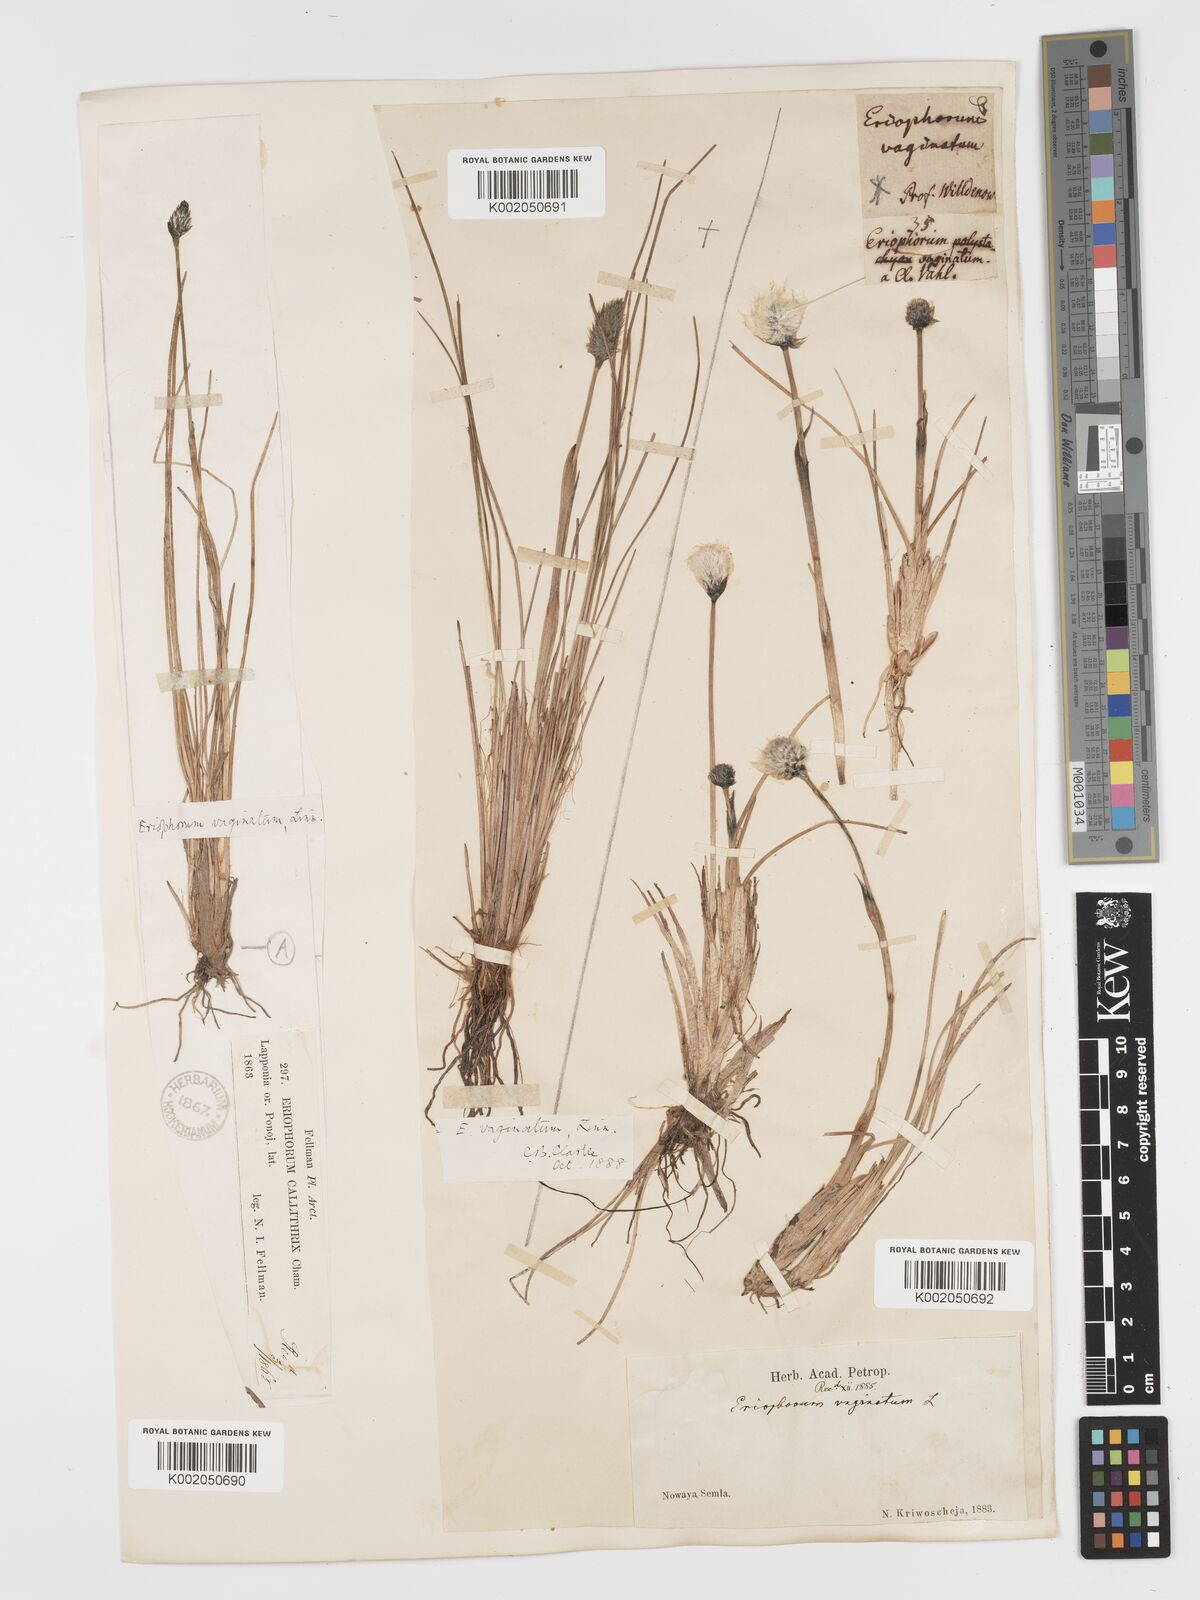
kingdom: Plantae
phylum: Tracheophyta
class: Liliopsida
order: Poales
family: Cyperaceae
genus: Eriophorum
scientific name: Eriophorum vaginatum
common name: Hare's-tail cottongrass
